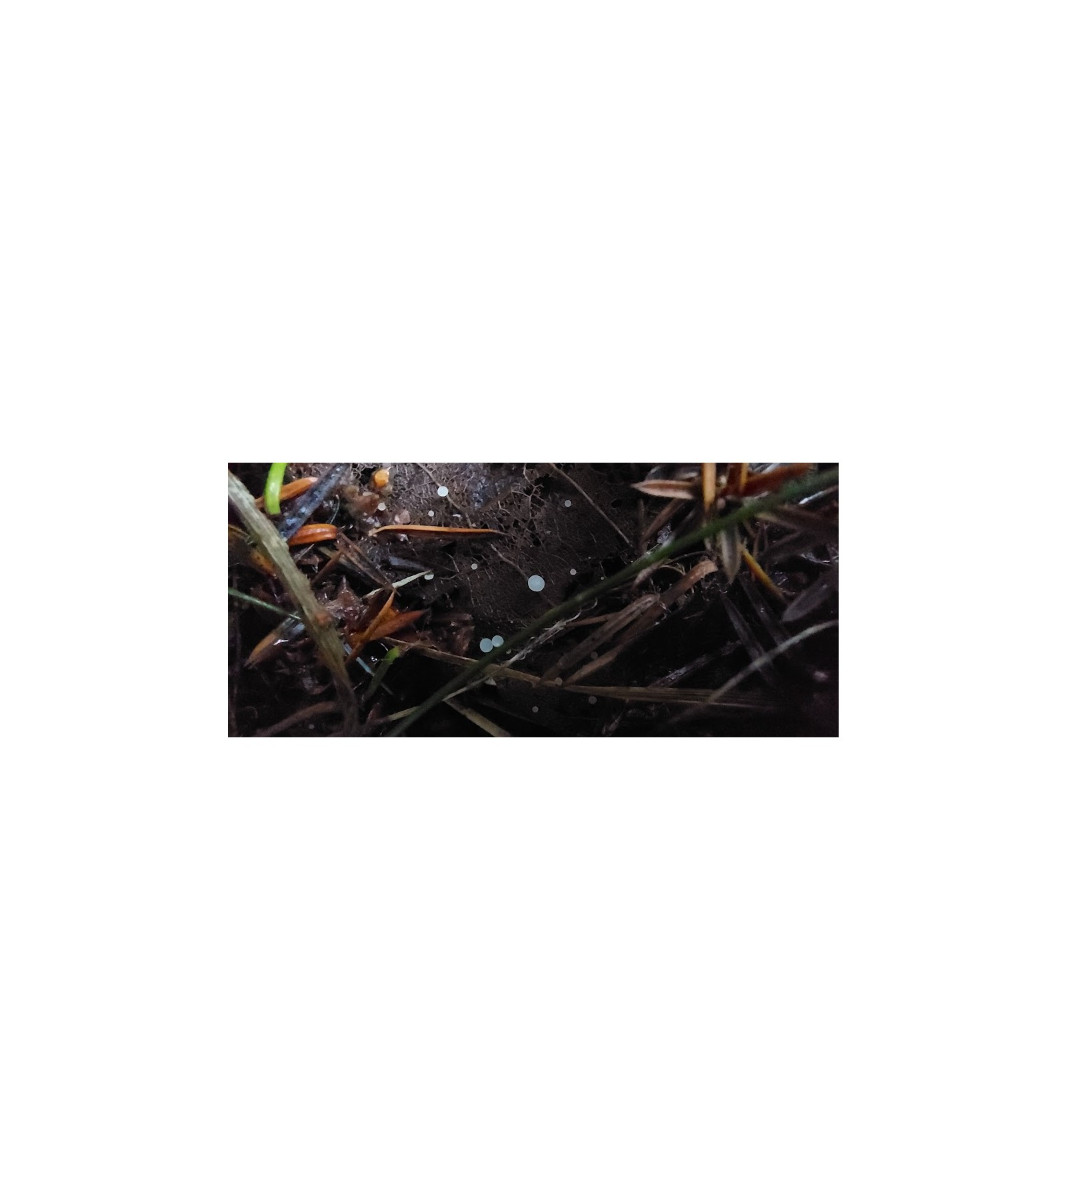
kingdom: Fungi
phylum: Ascomycota
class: Leotiomycetes
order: Helotiales
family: Helotiaceae
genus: Hymenoscyphus
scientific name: Hymenoscyphus
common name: stilkskive
